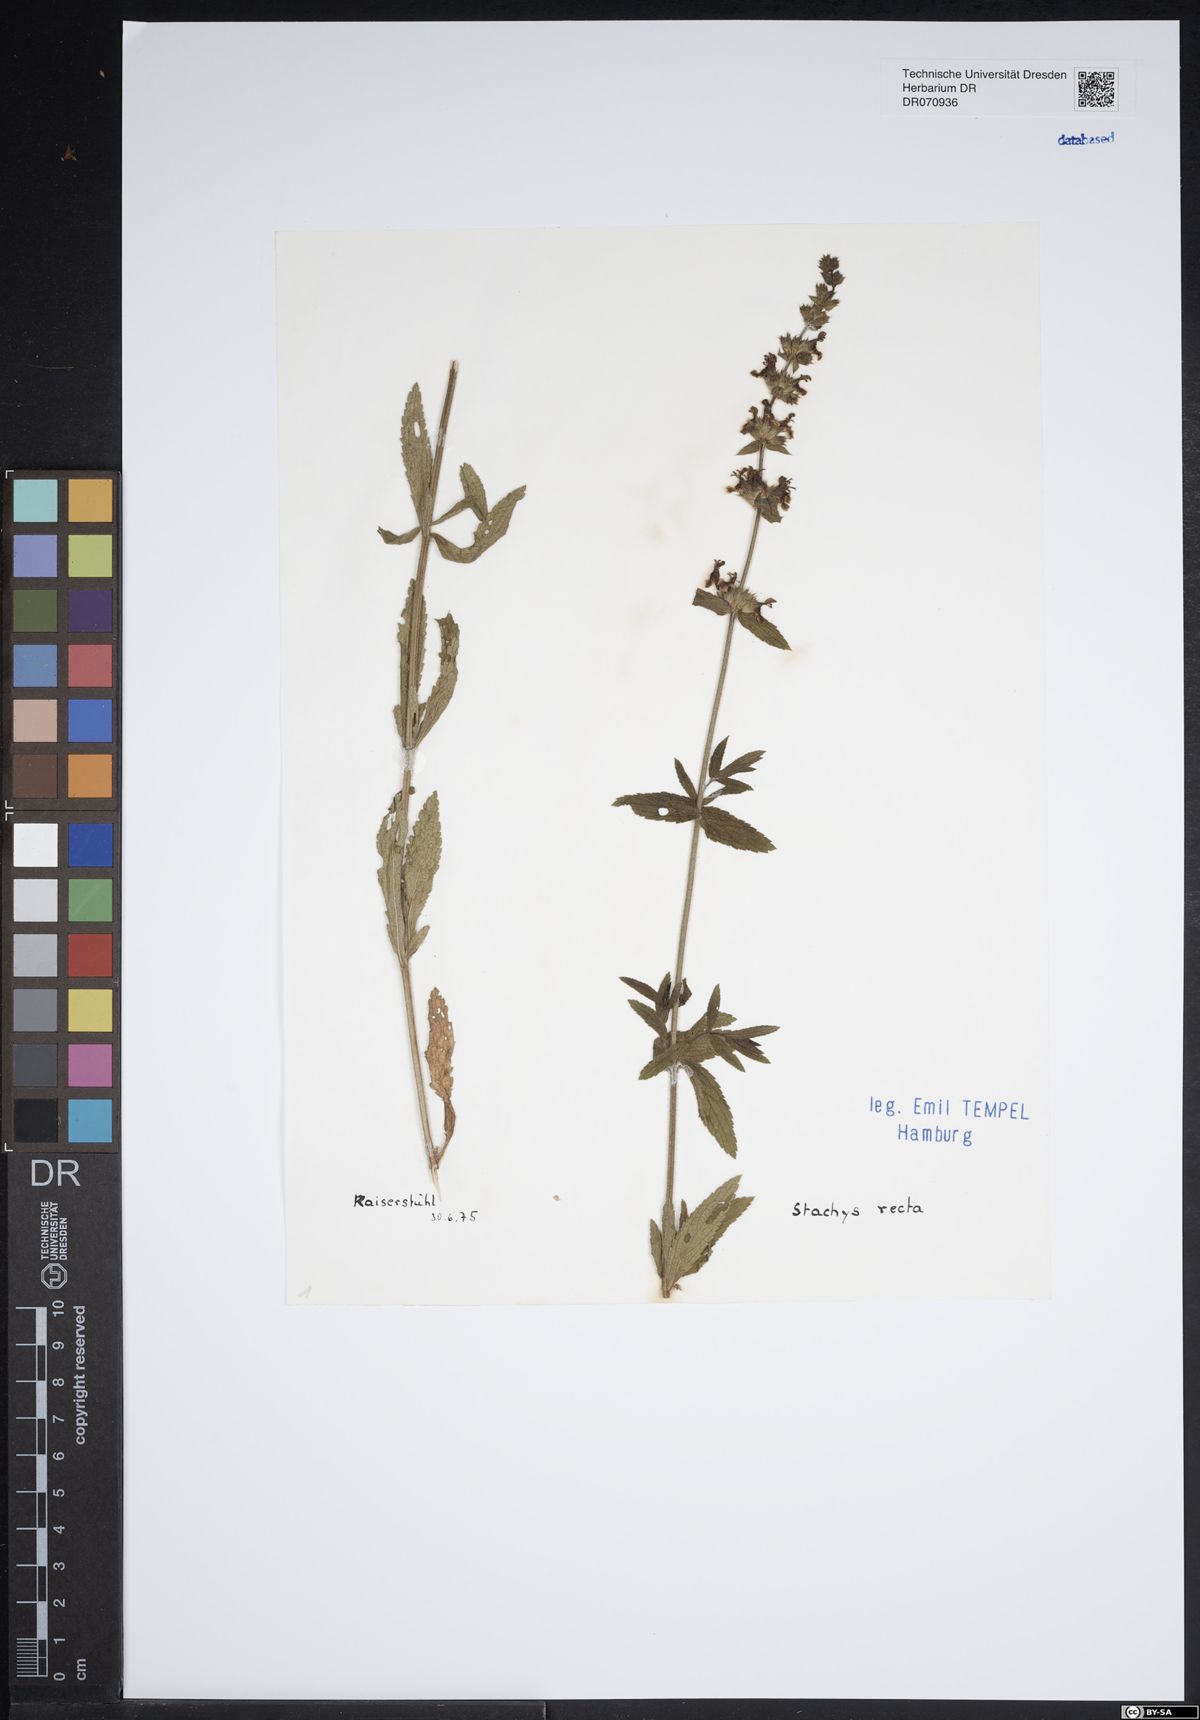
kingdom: Plantae
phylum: Tracheophyta
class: Magnoliopsida
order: Lamiales
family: Lamiaceae
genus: Stachys
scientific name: Stachys recta
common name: Perennial yellow-woundwort
